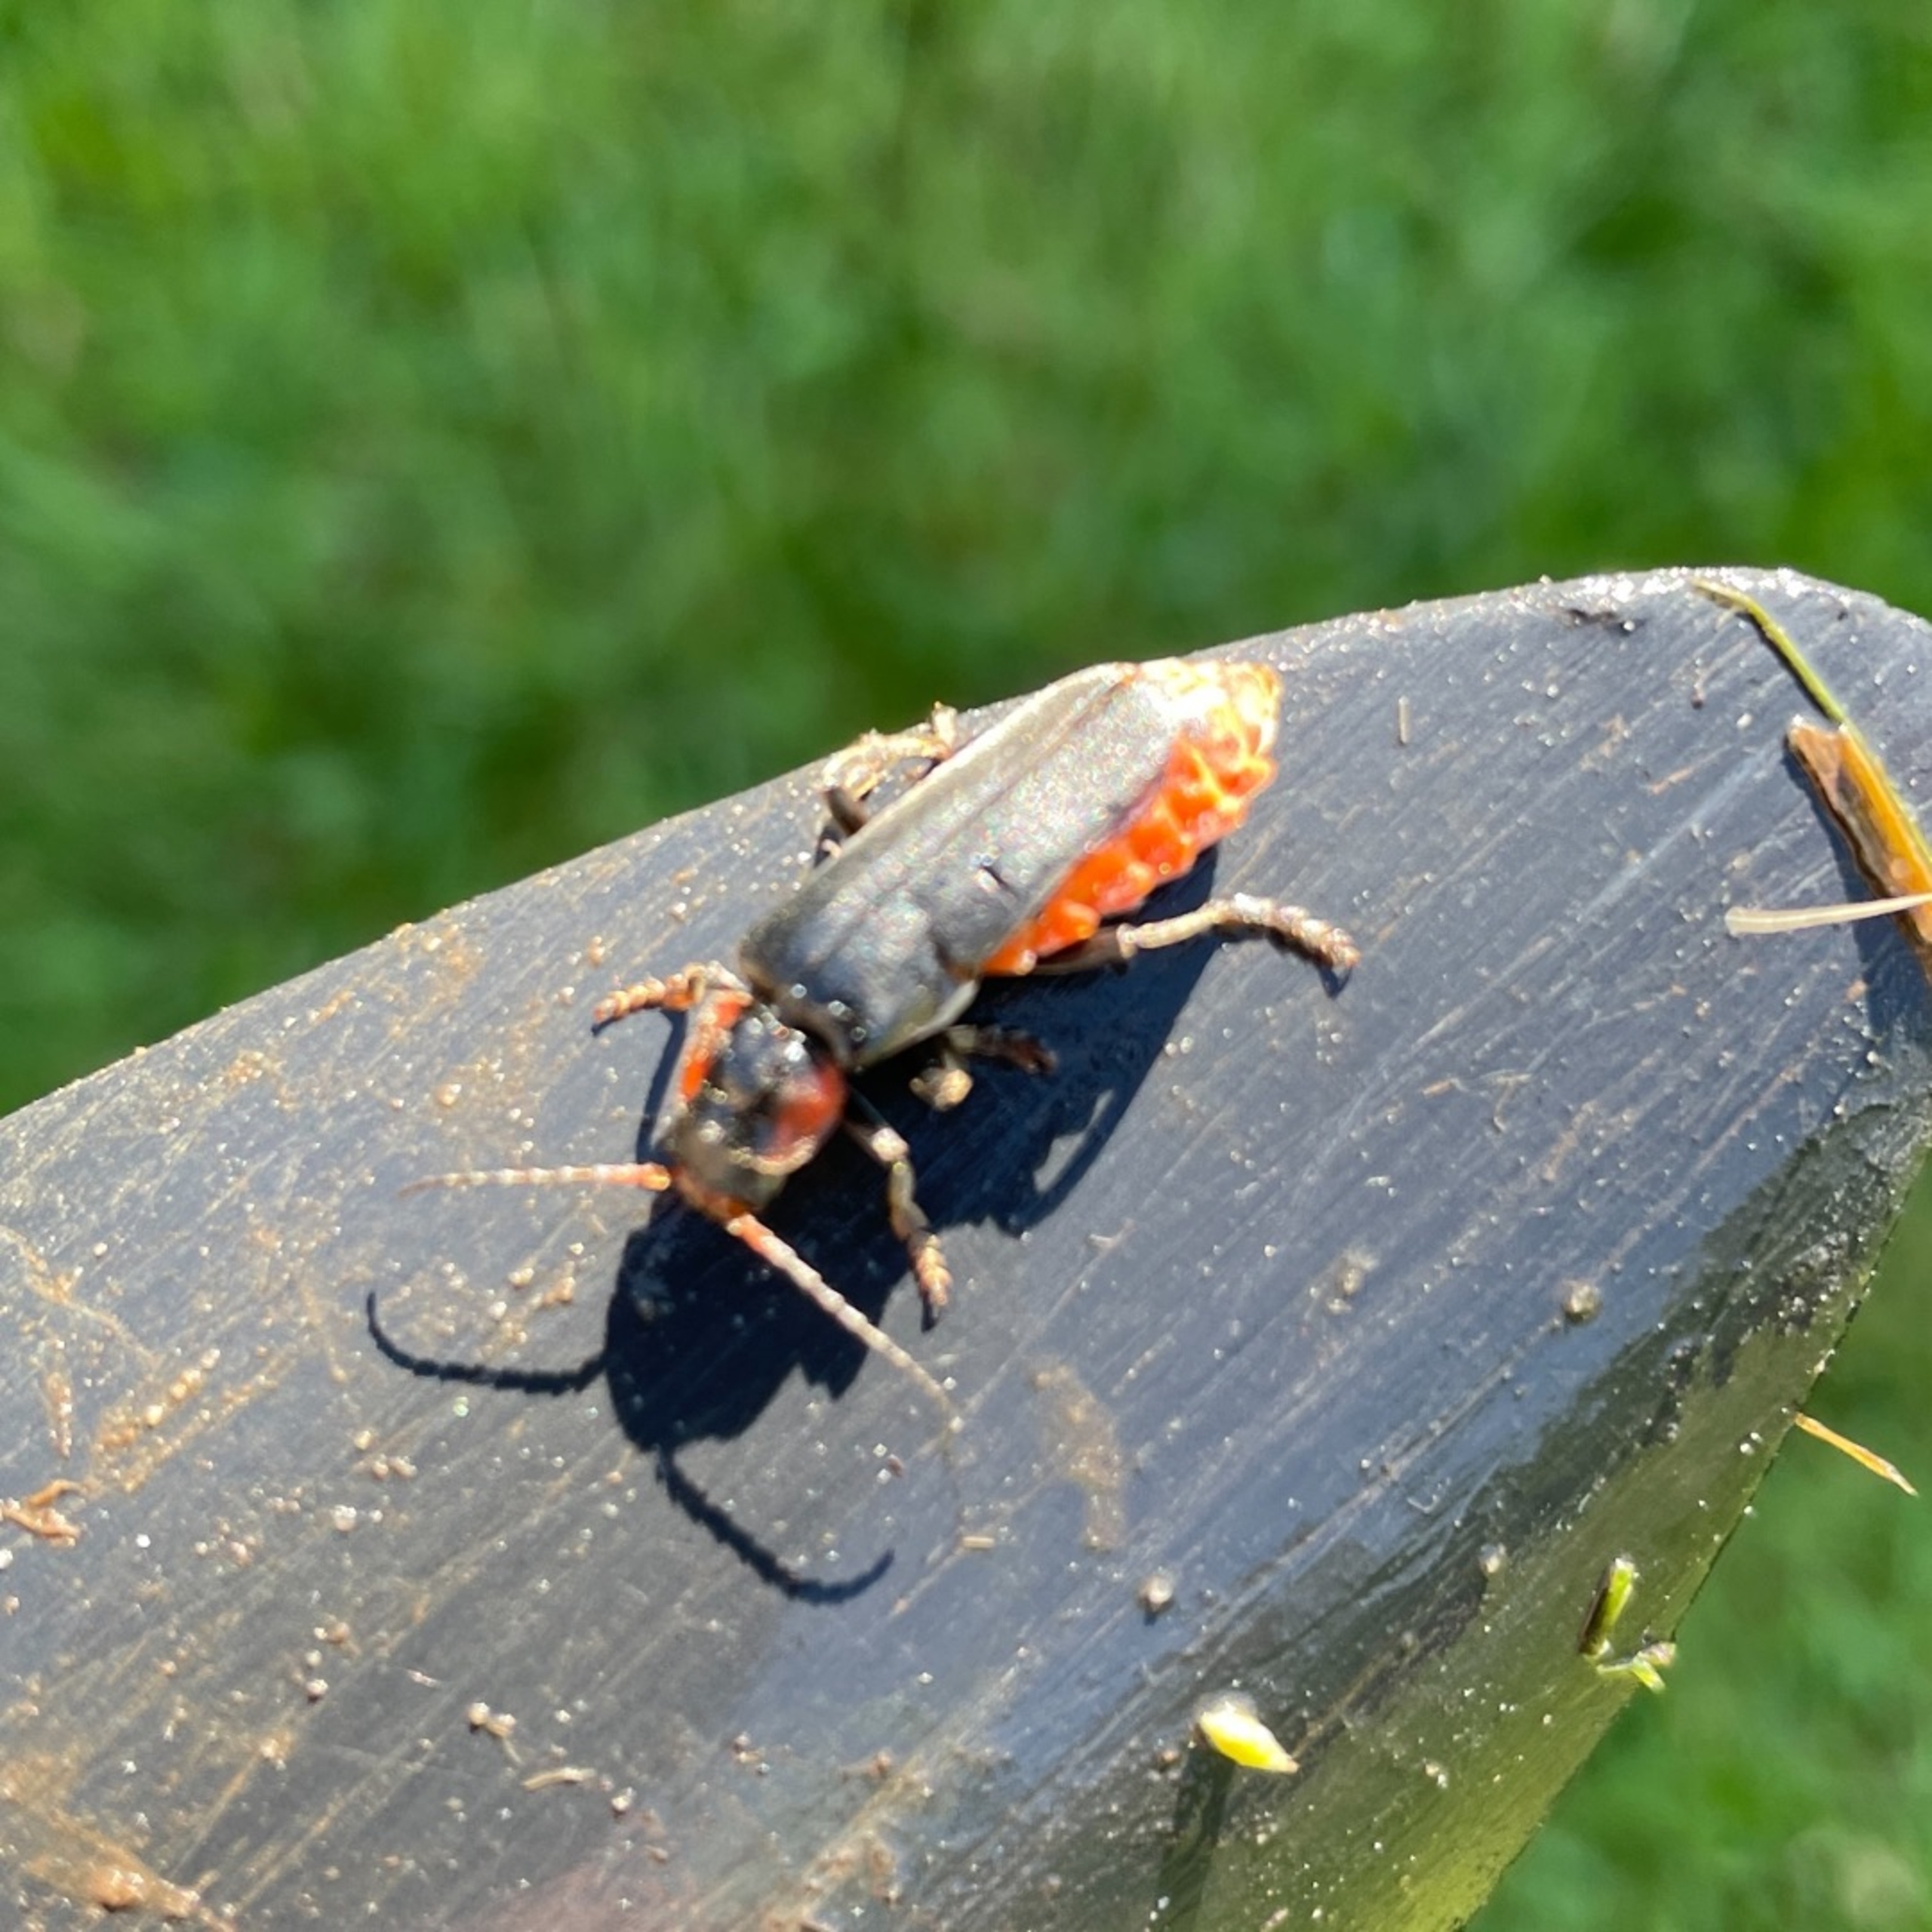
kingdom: Animalia
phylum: Arthropoda
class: Insecta
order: Coleoptera
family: Cantharidae
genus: Cantharis
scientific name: Cantharis fusca
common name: Stor blødvinge
